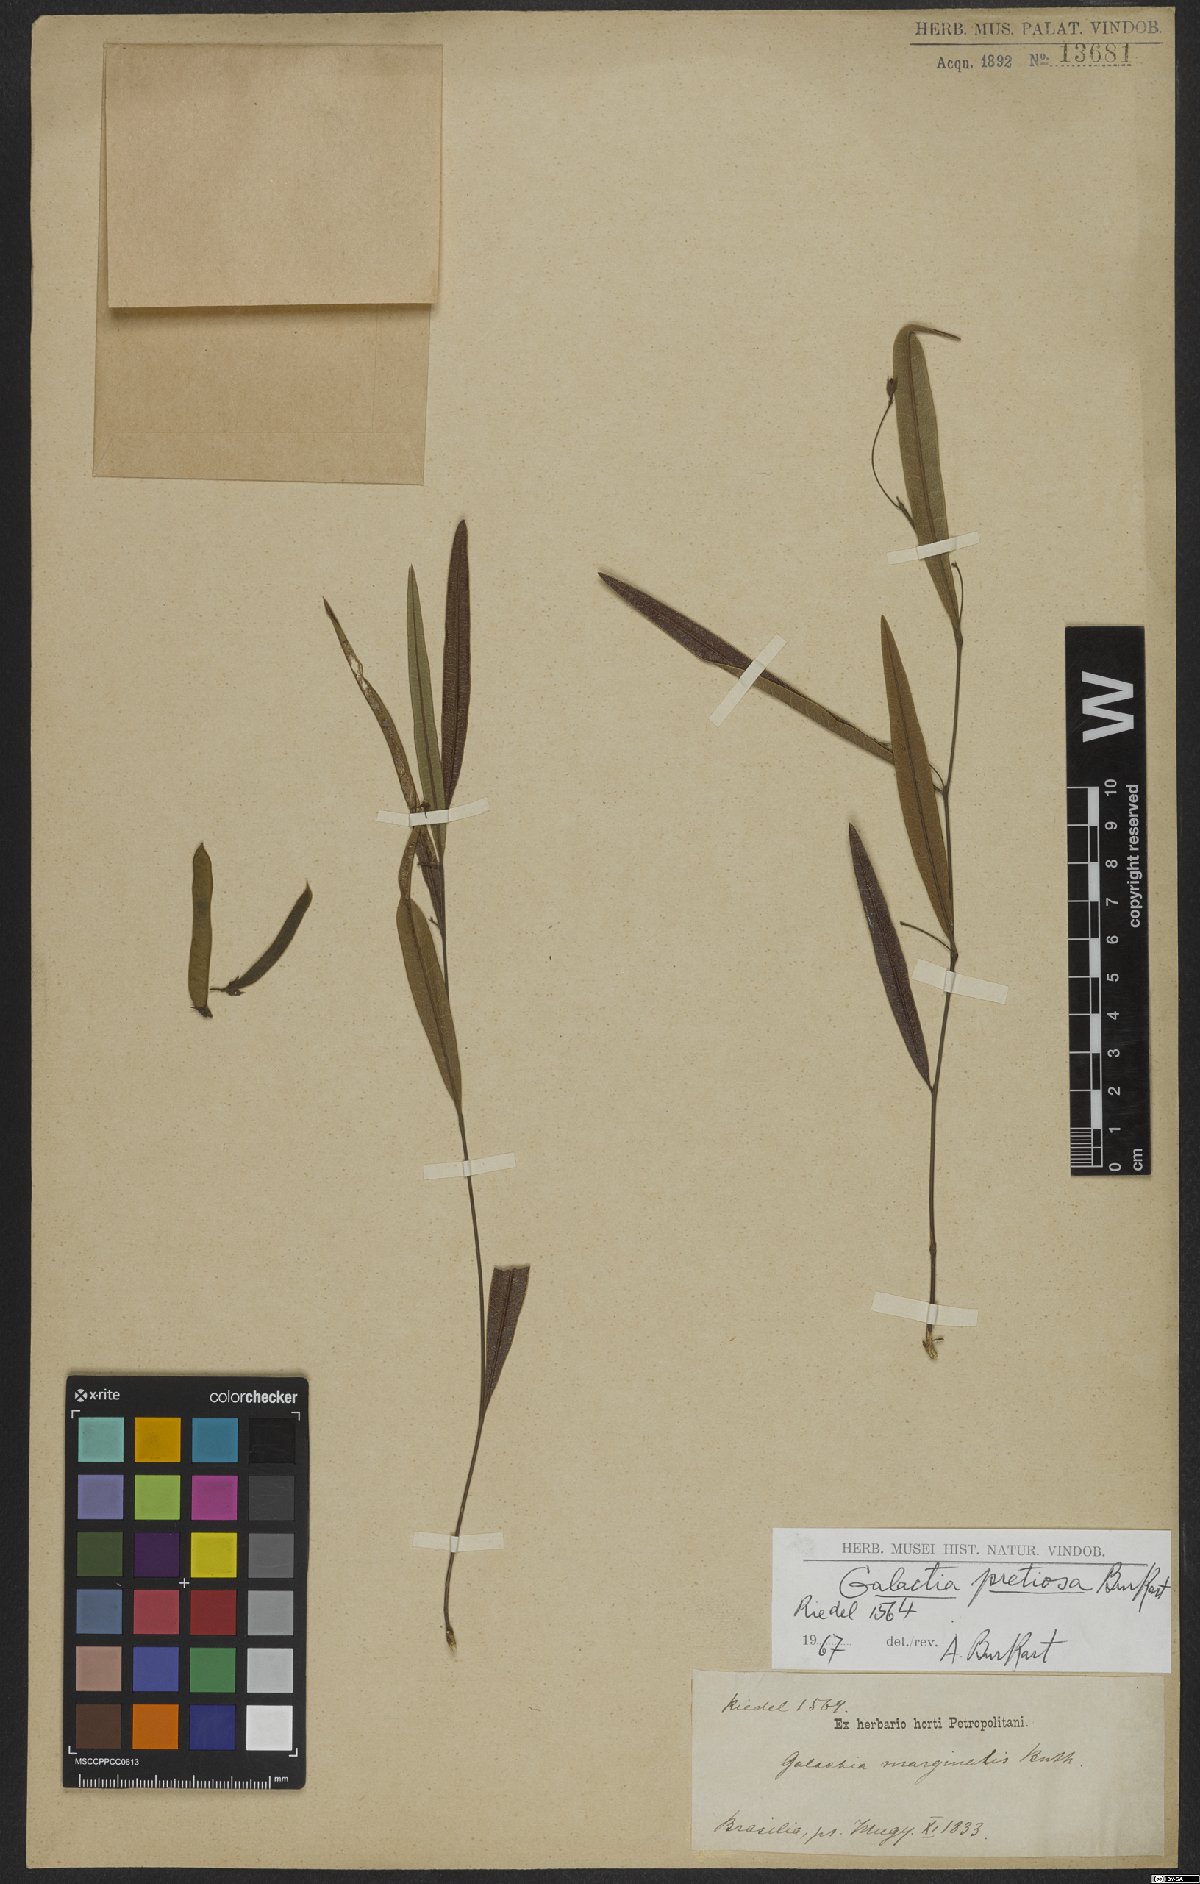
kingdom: Plantae
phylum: Tracheophyta
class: Magnoliopsida
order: Fabales
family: Fabaceae
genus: Nanogalactia
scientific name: Nanogalactia pretiosa
